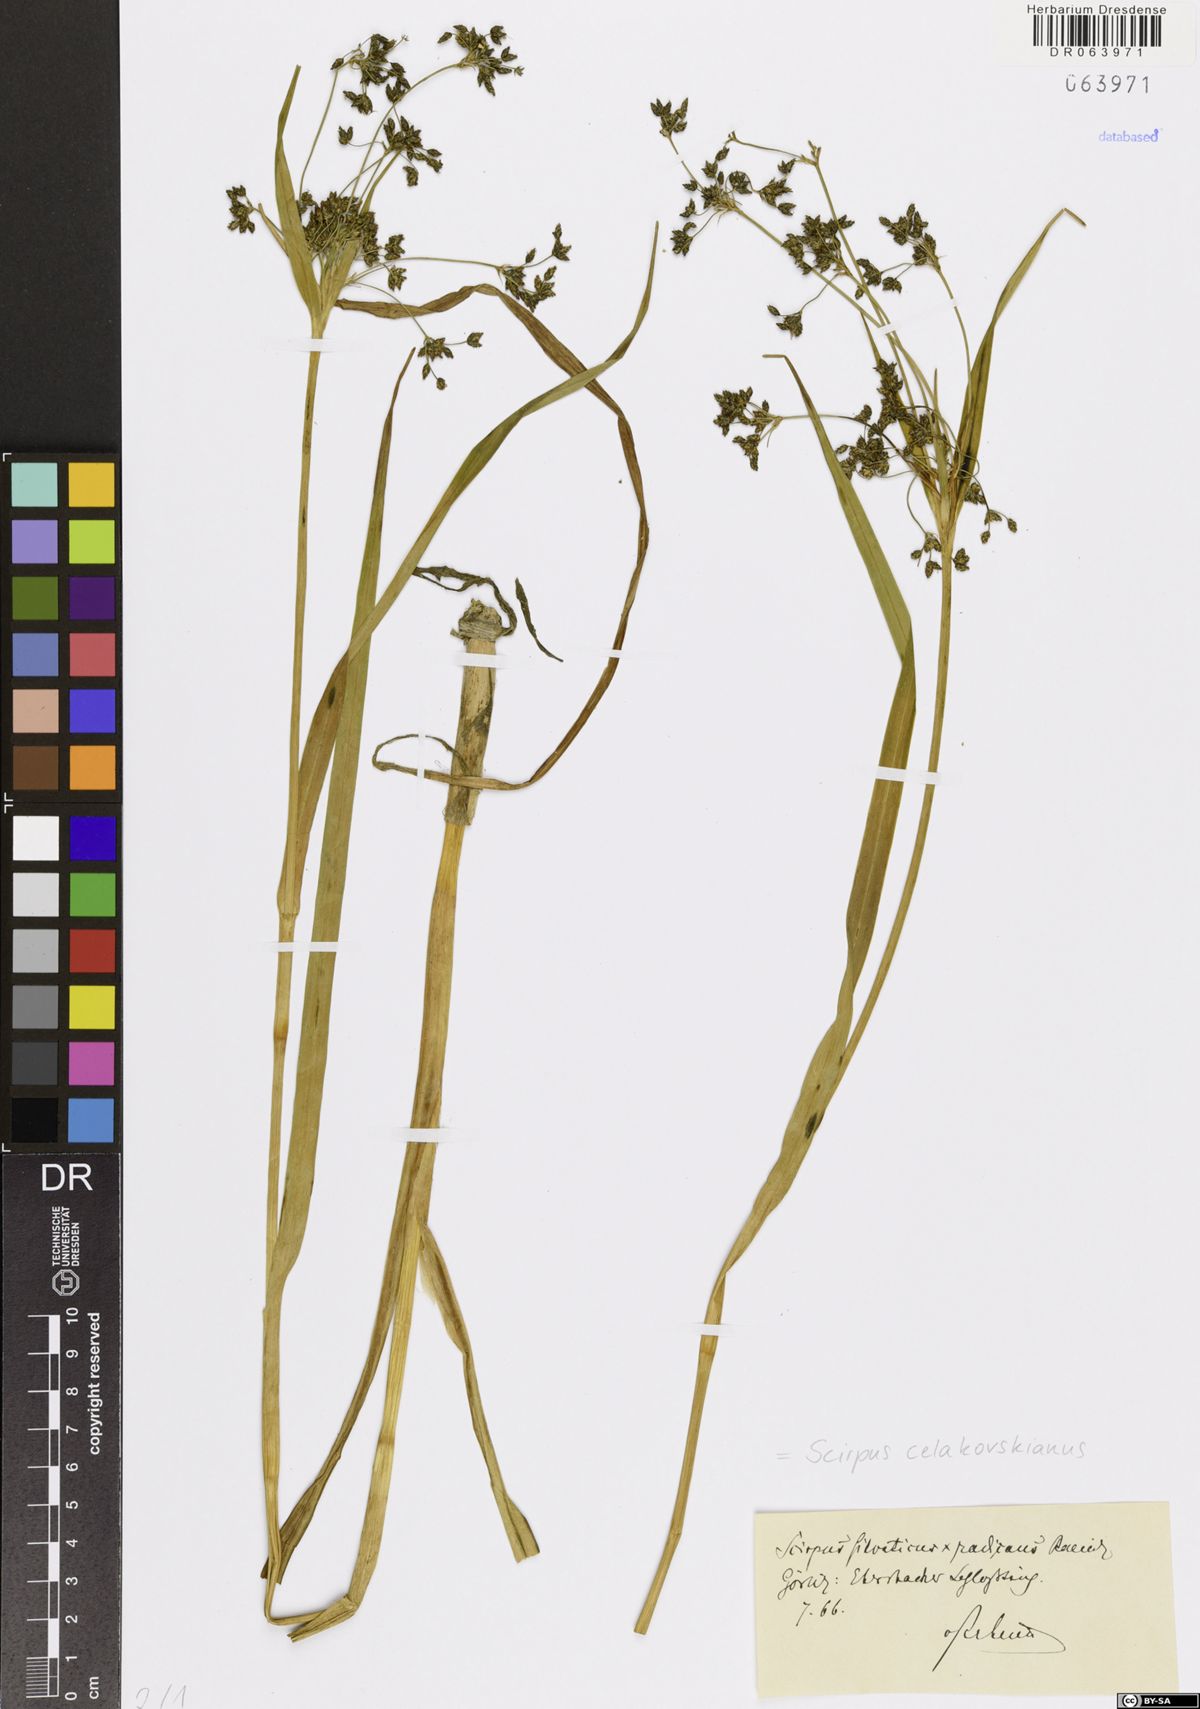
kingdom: Plantae
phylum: Tracheophyta
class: Liliopsida
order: Poales
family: Cyperaceae
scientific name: Cyperaceae
